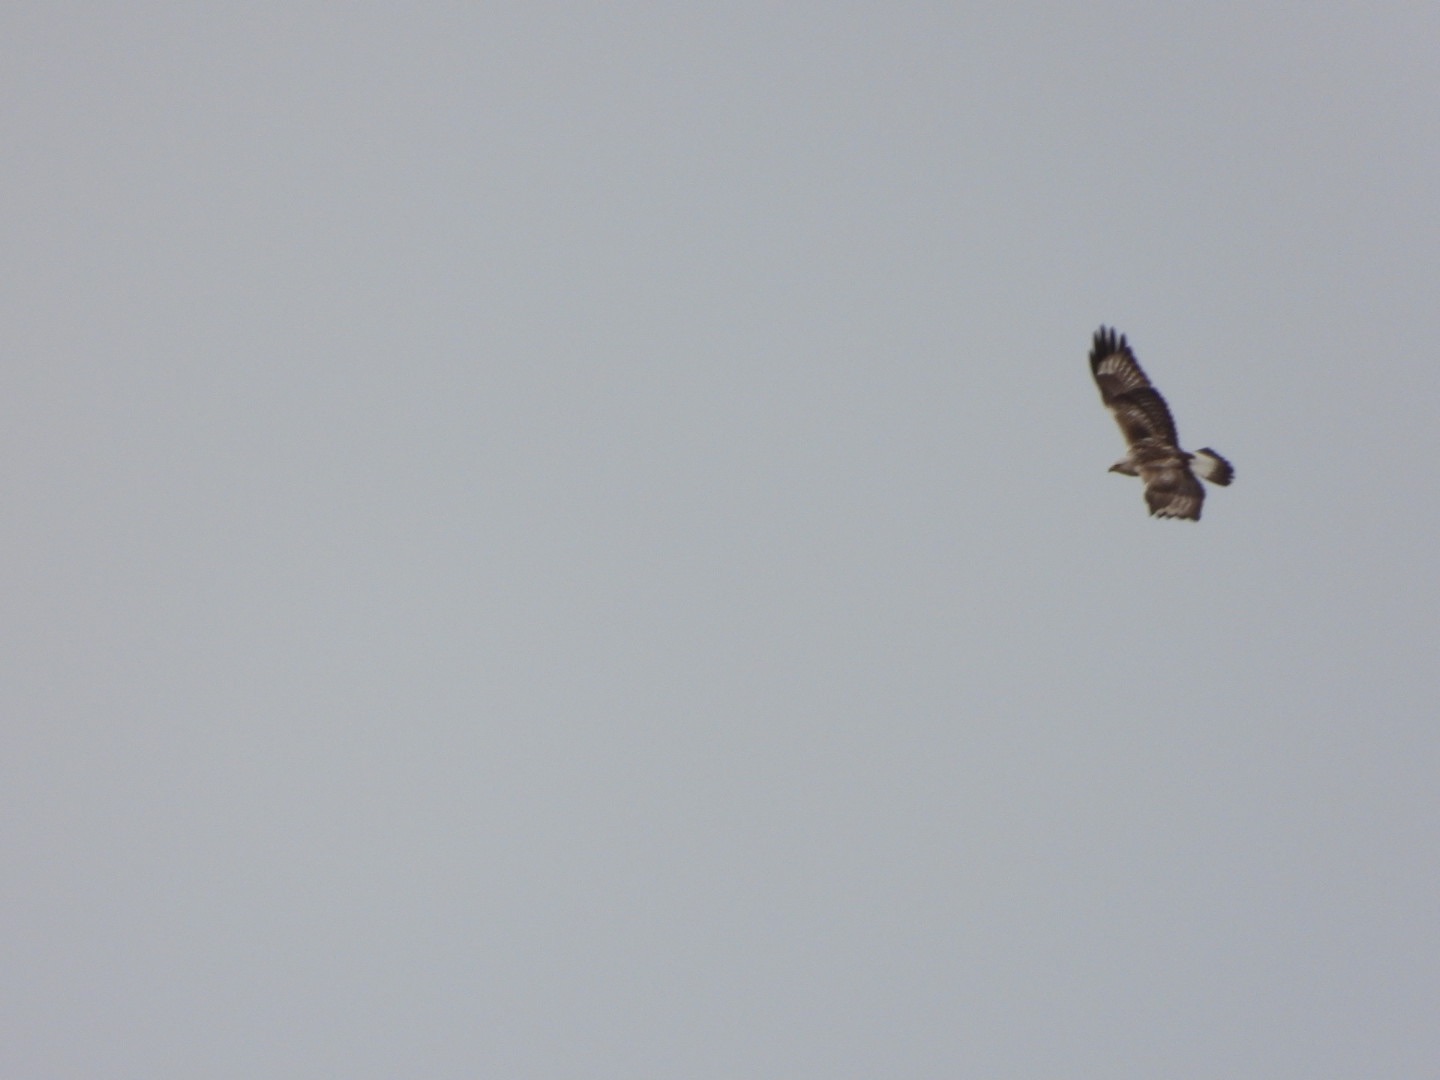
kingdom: Animalia
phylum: Chordata
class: Aves
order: Accipitriformes
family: Accipitridae
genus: Buteo
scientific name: Buteo lagopus
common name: Fjeldvåge
